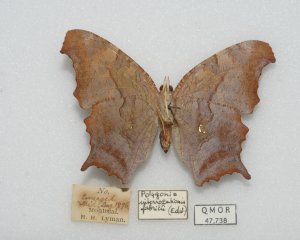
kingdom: Animalia
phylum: Arthropoda
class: Insecta
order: Lepidoptera
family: Nymphalidae
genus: Polygonia
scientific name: Polygonia interrogationis
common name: Question Mark
